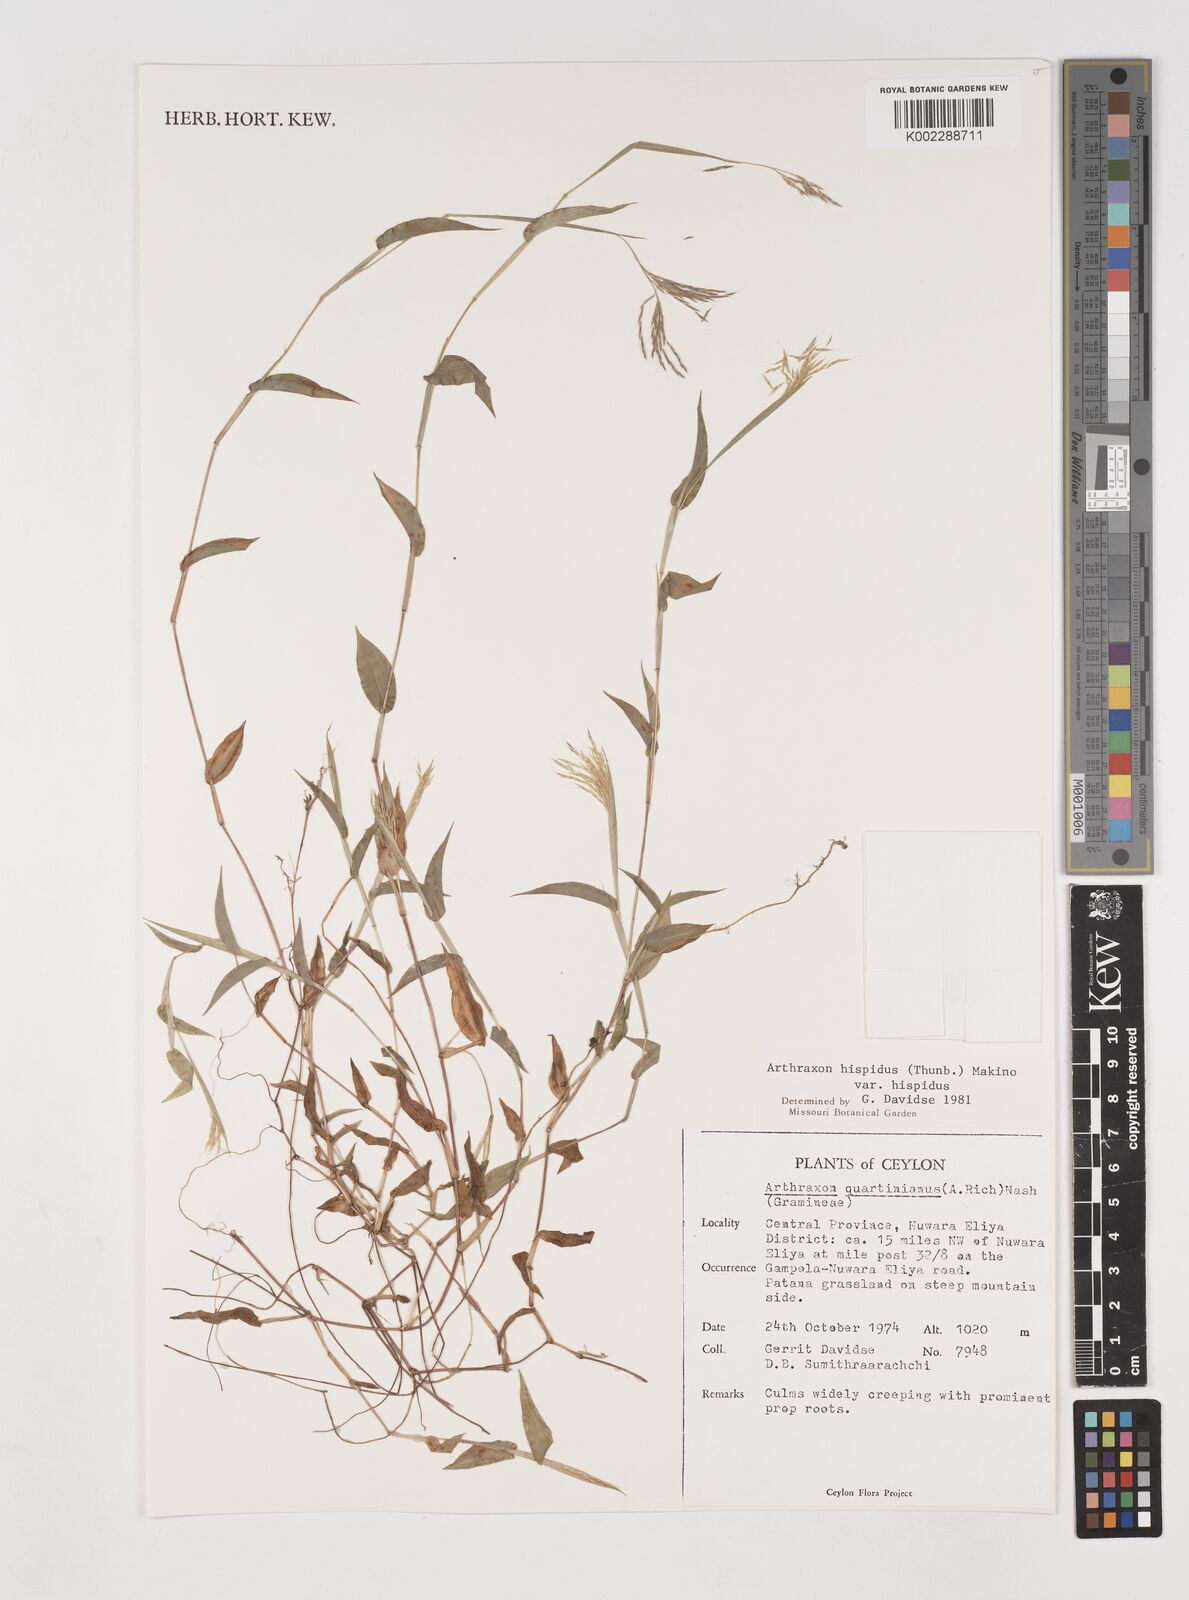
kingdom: Plantae
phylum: Tracheophyta
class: Liliopsida
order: Poales
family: Poaceae
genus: Arthraxon
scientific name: Arthraxon hispidus
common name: Small carpgrass
